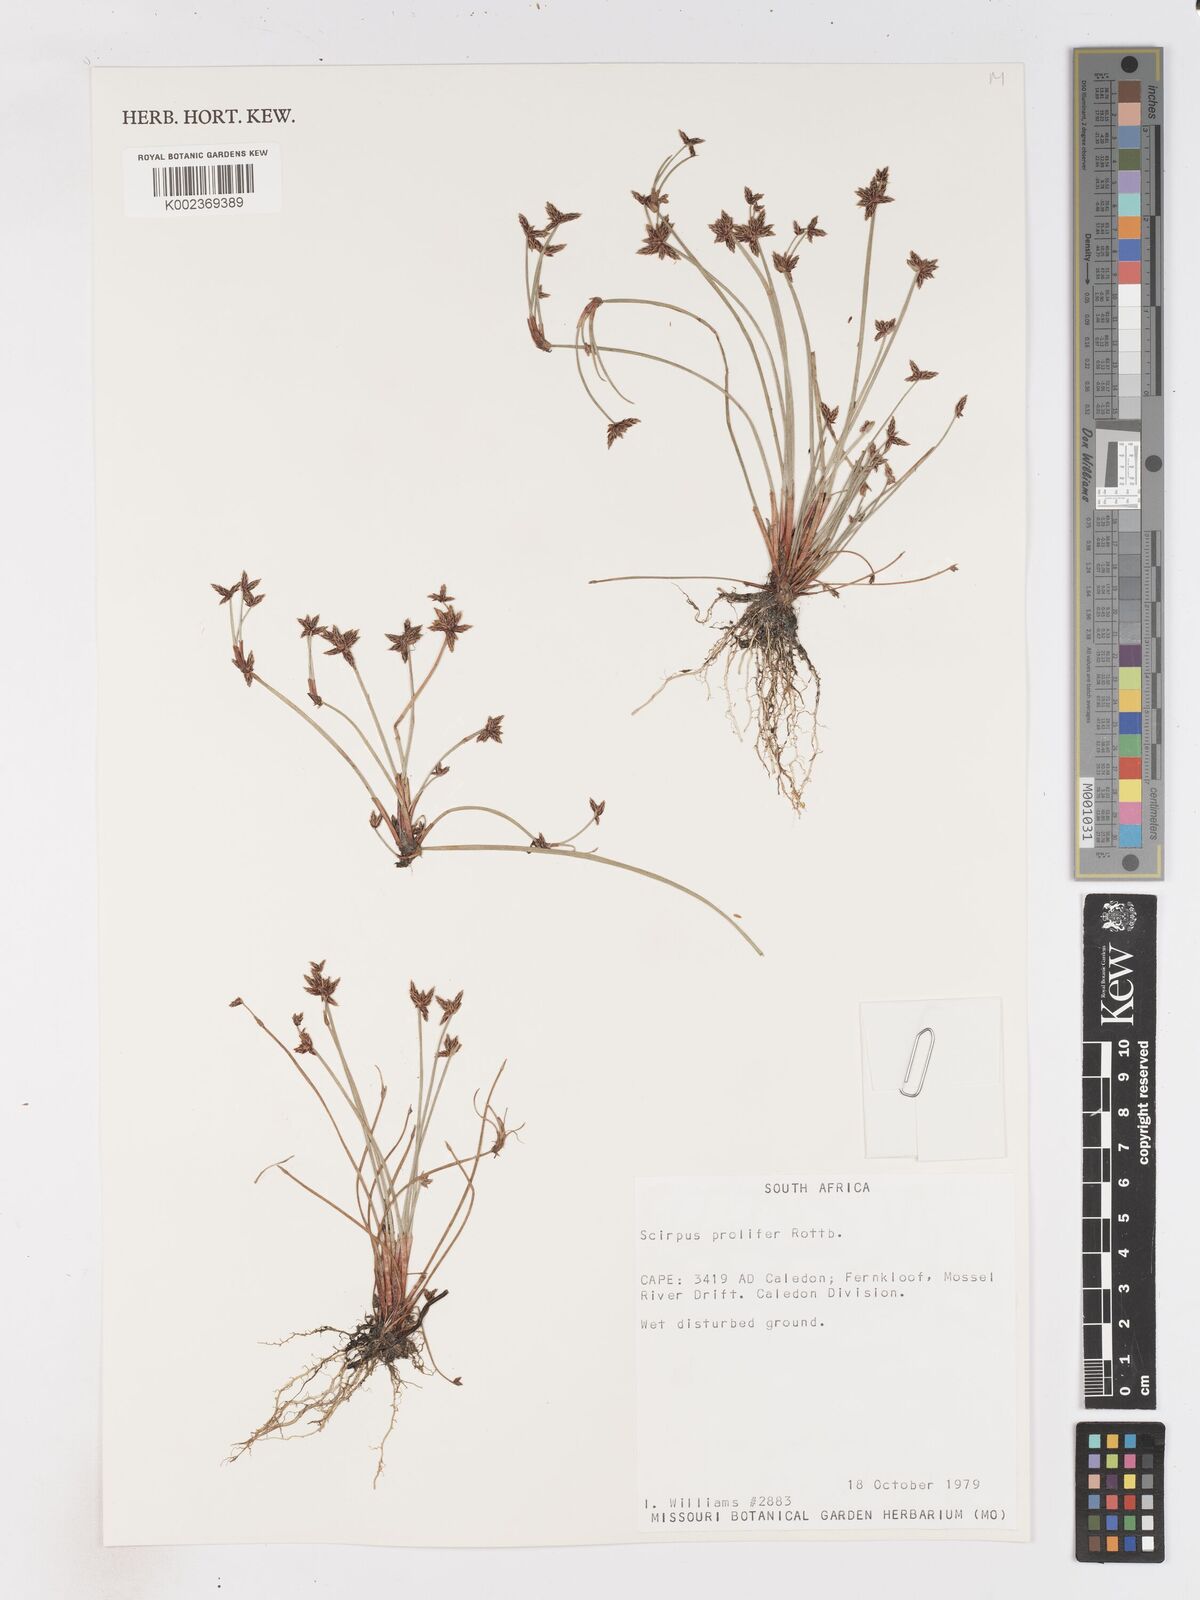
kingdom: Plantae
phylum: Tracheophyta
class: Liliopsida
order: Poales
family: Cyperaceae
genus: Isolepis
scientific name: Isolepis prolifera
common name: Proliferating bulrush
